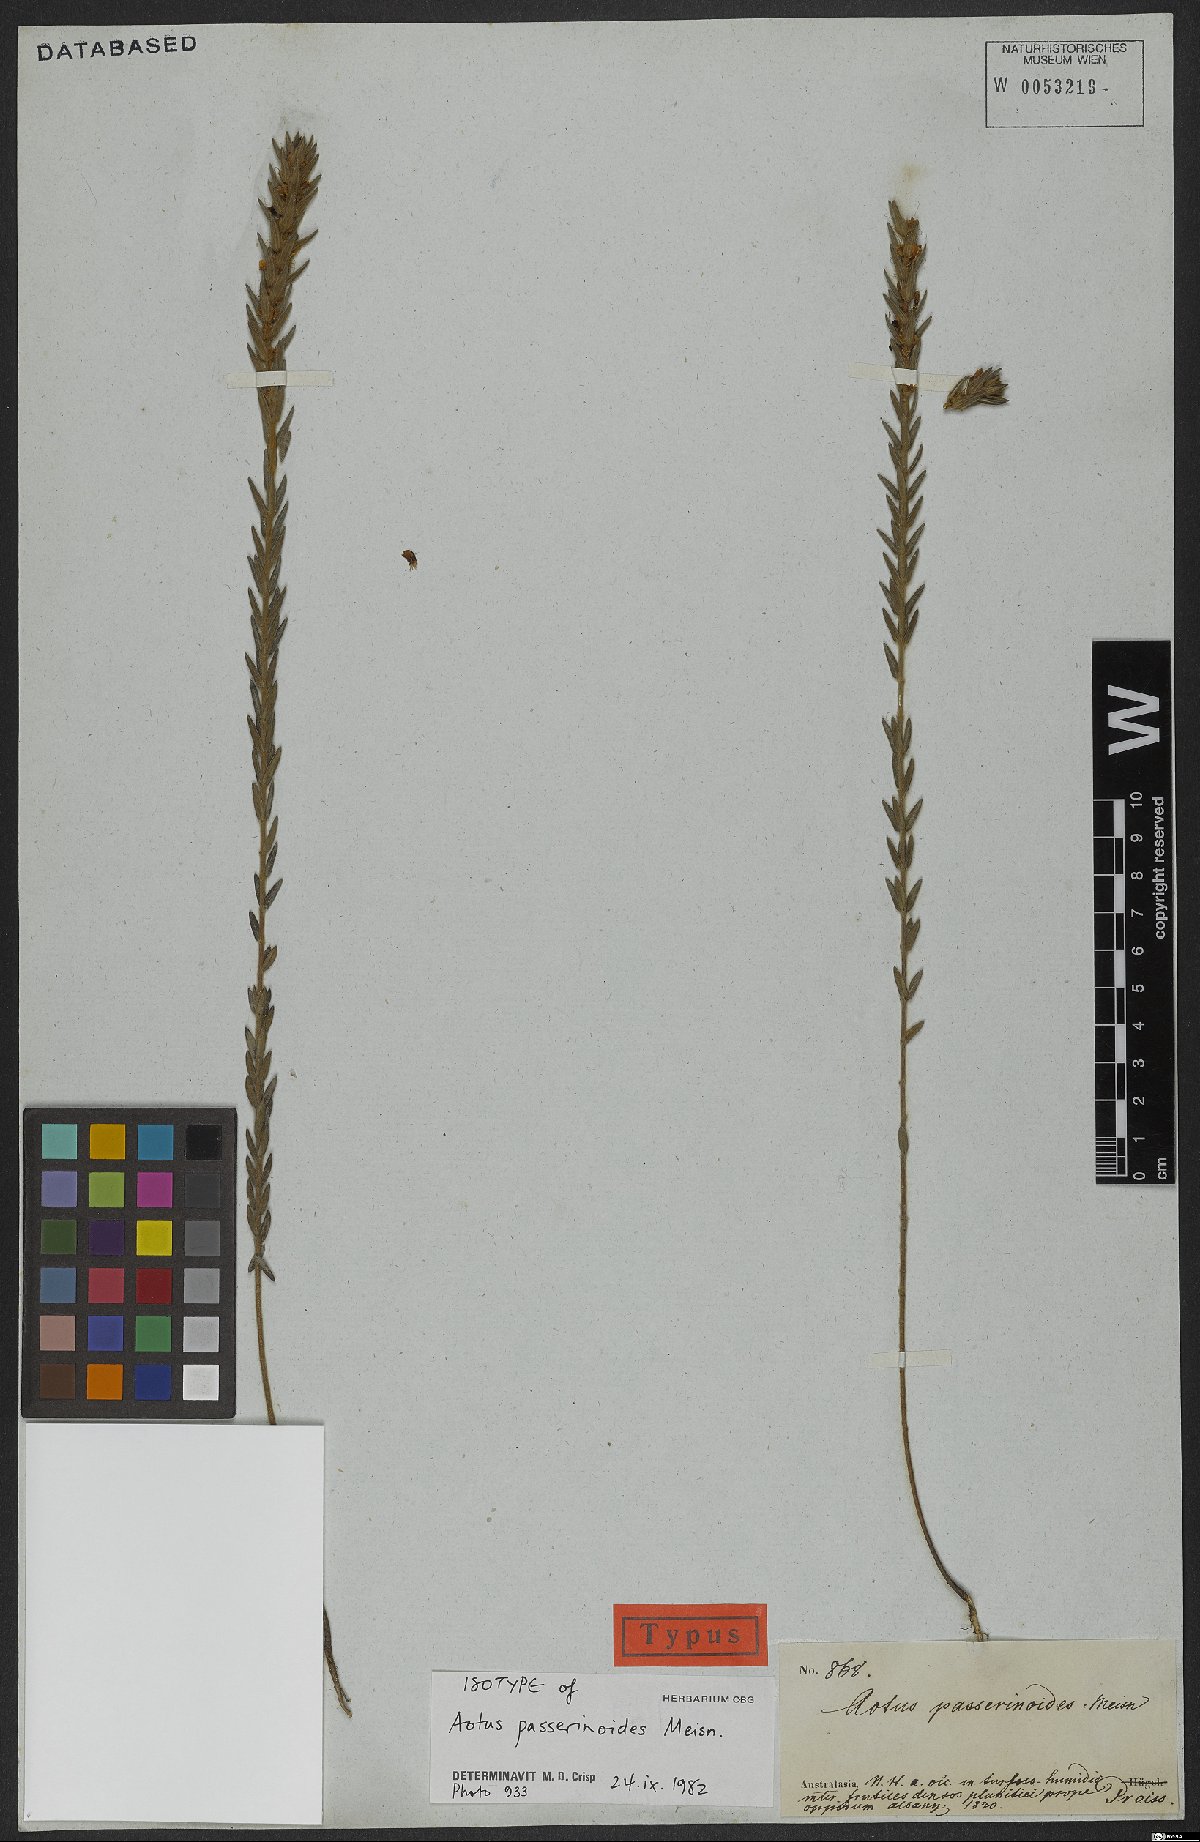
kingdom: Plantae
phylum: Tracheophyta
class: Magnoliopsida
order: Fabales
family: Fabaceae
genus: Aotus
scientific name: Aotus passerinoides
